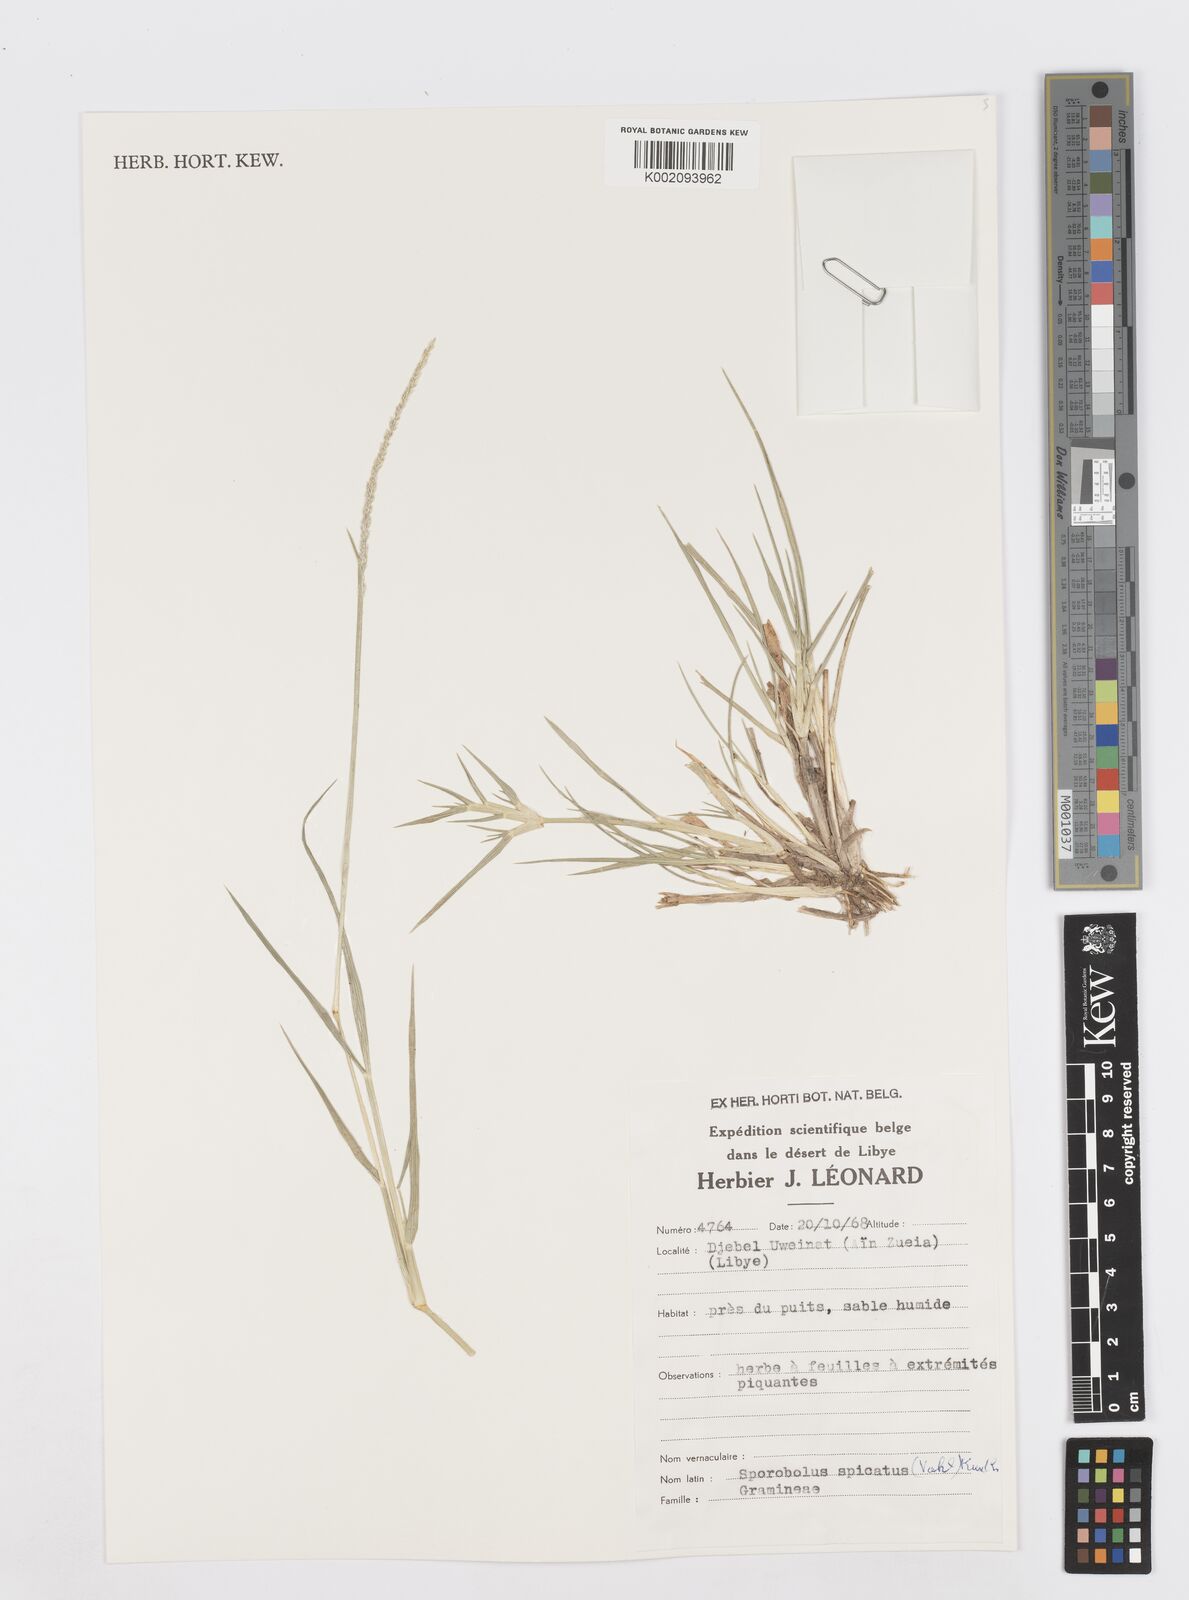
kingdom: Plantae
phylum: Tracheophyta
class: Liliopsida
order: Poales
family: Poaceae
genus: Sporobolus
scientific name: Sporobolus spicatus
